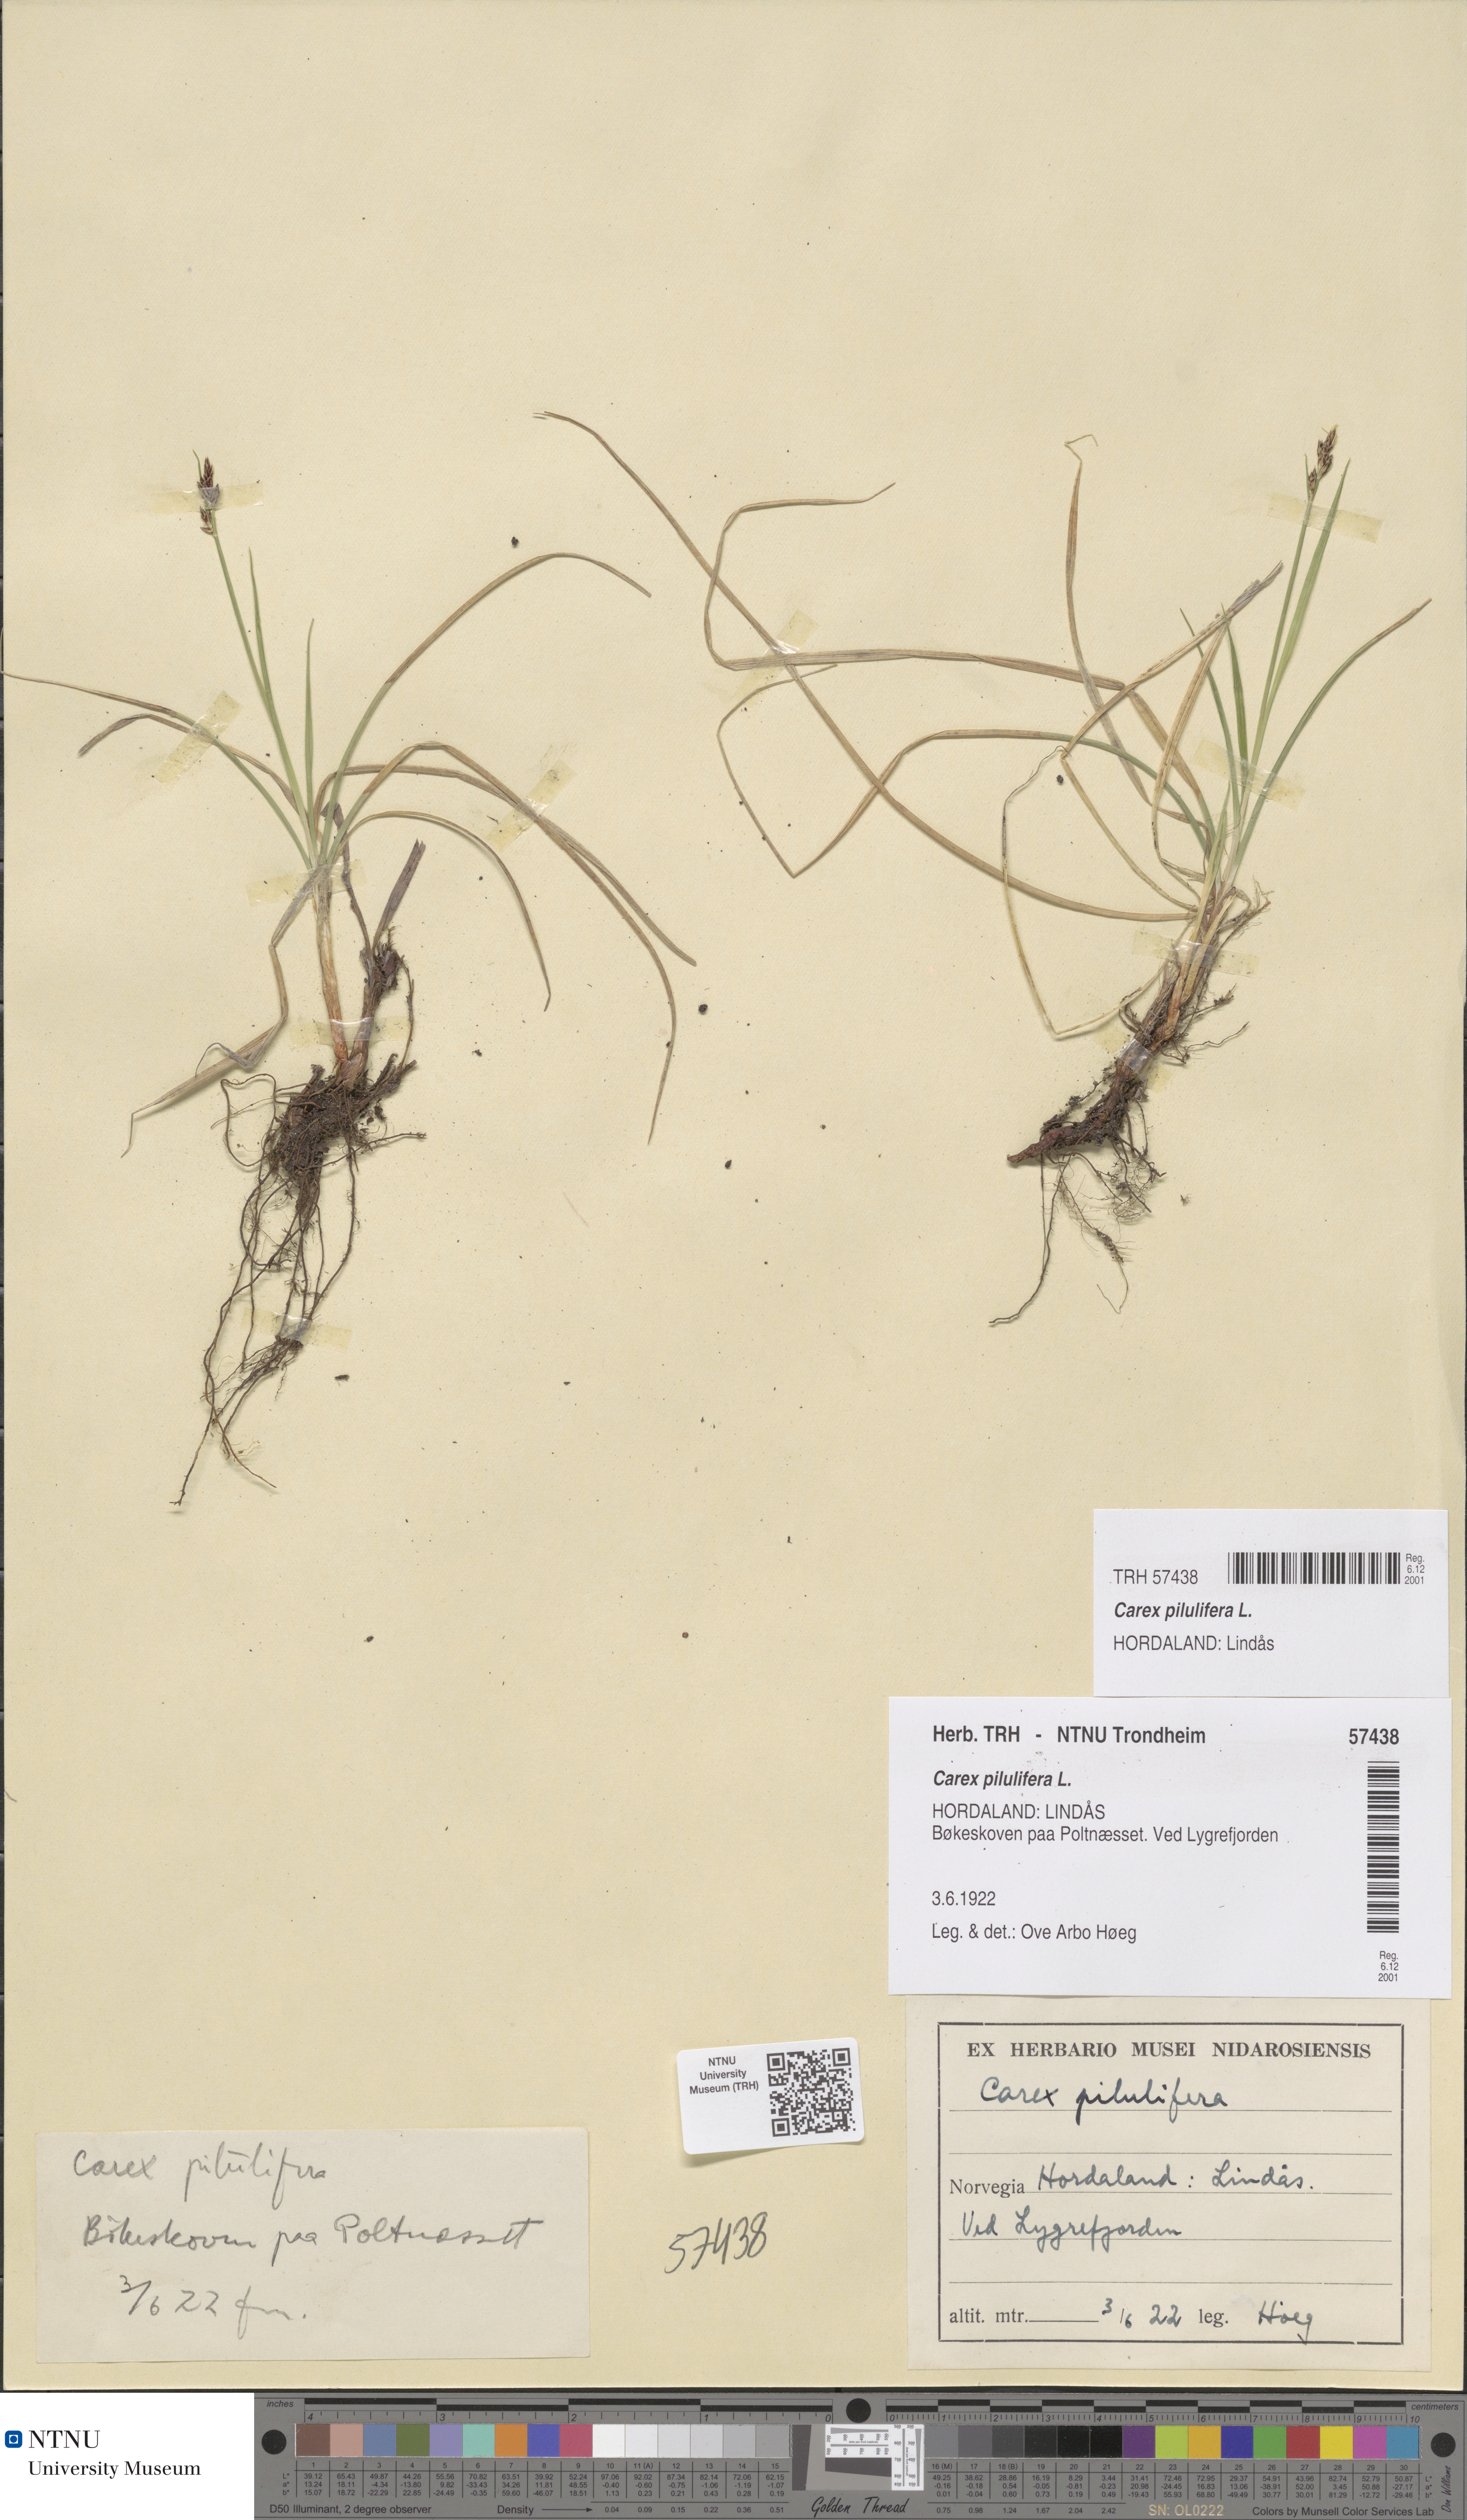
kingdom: Plantae
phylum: Tracheophyta
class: Liliopsida
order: Poales
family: Cyperaceae
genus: Carex
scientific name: Carex pilulifera
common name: Pill sedge
